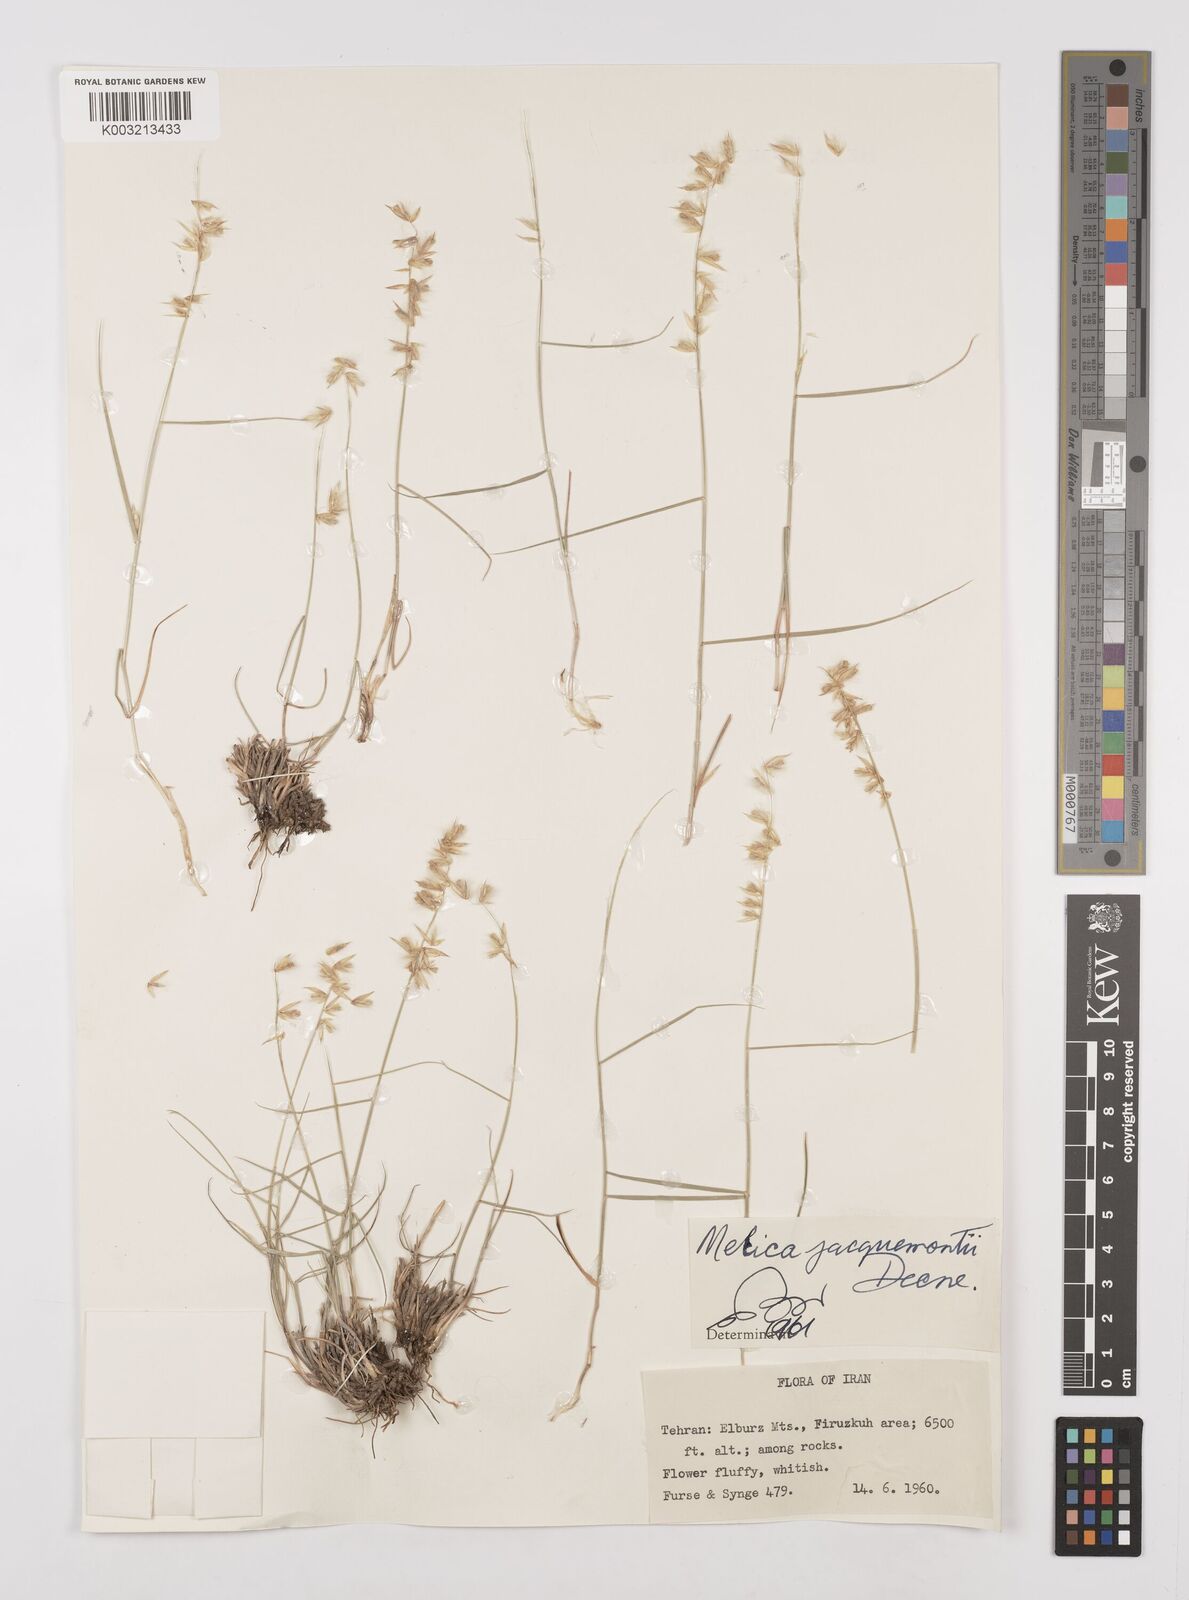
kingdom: Plantae
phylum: Tracheophyta
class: Liliopsida
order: Poales
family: Poaceae
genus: Melica
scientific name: Melica persica
